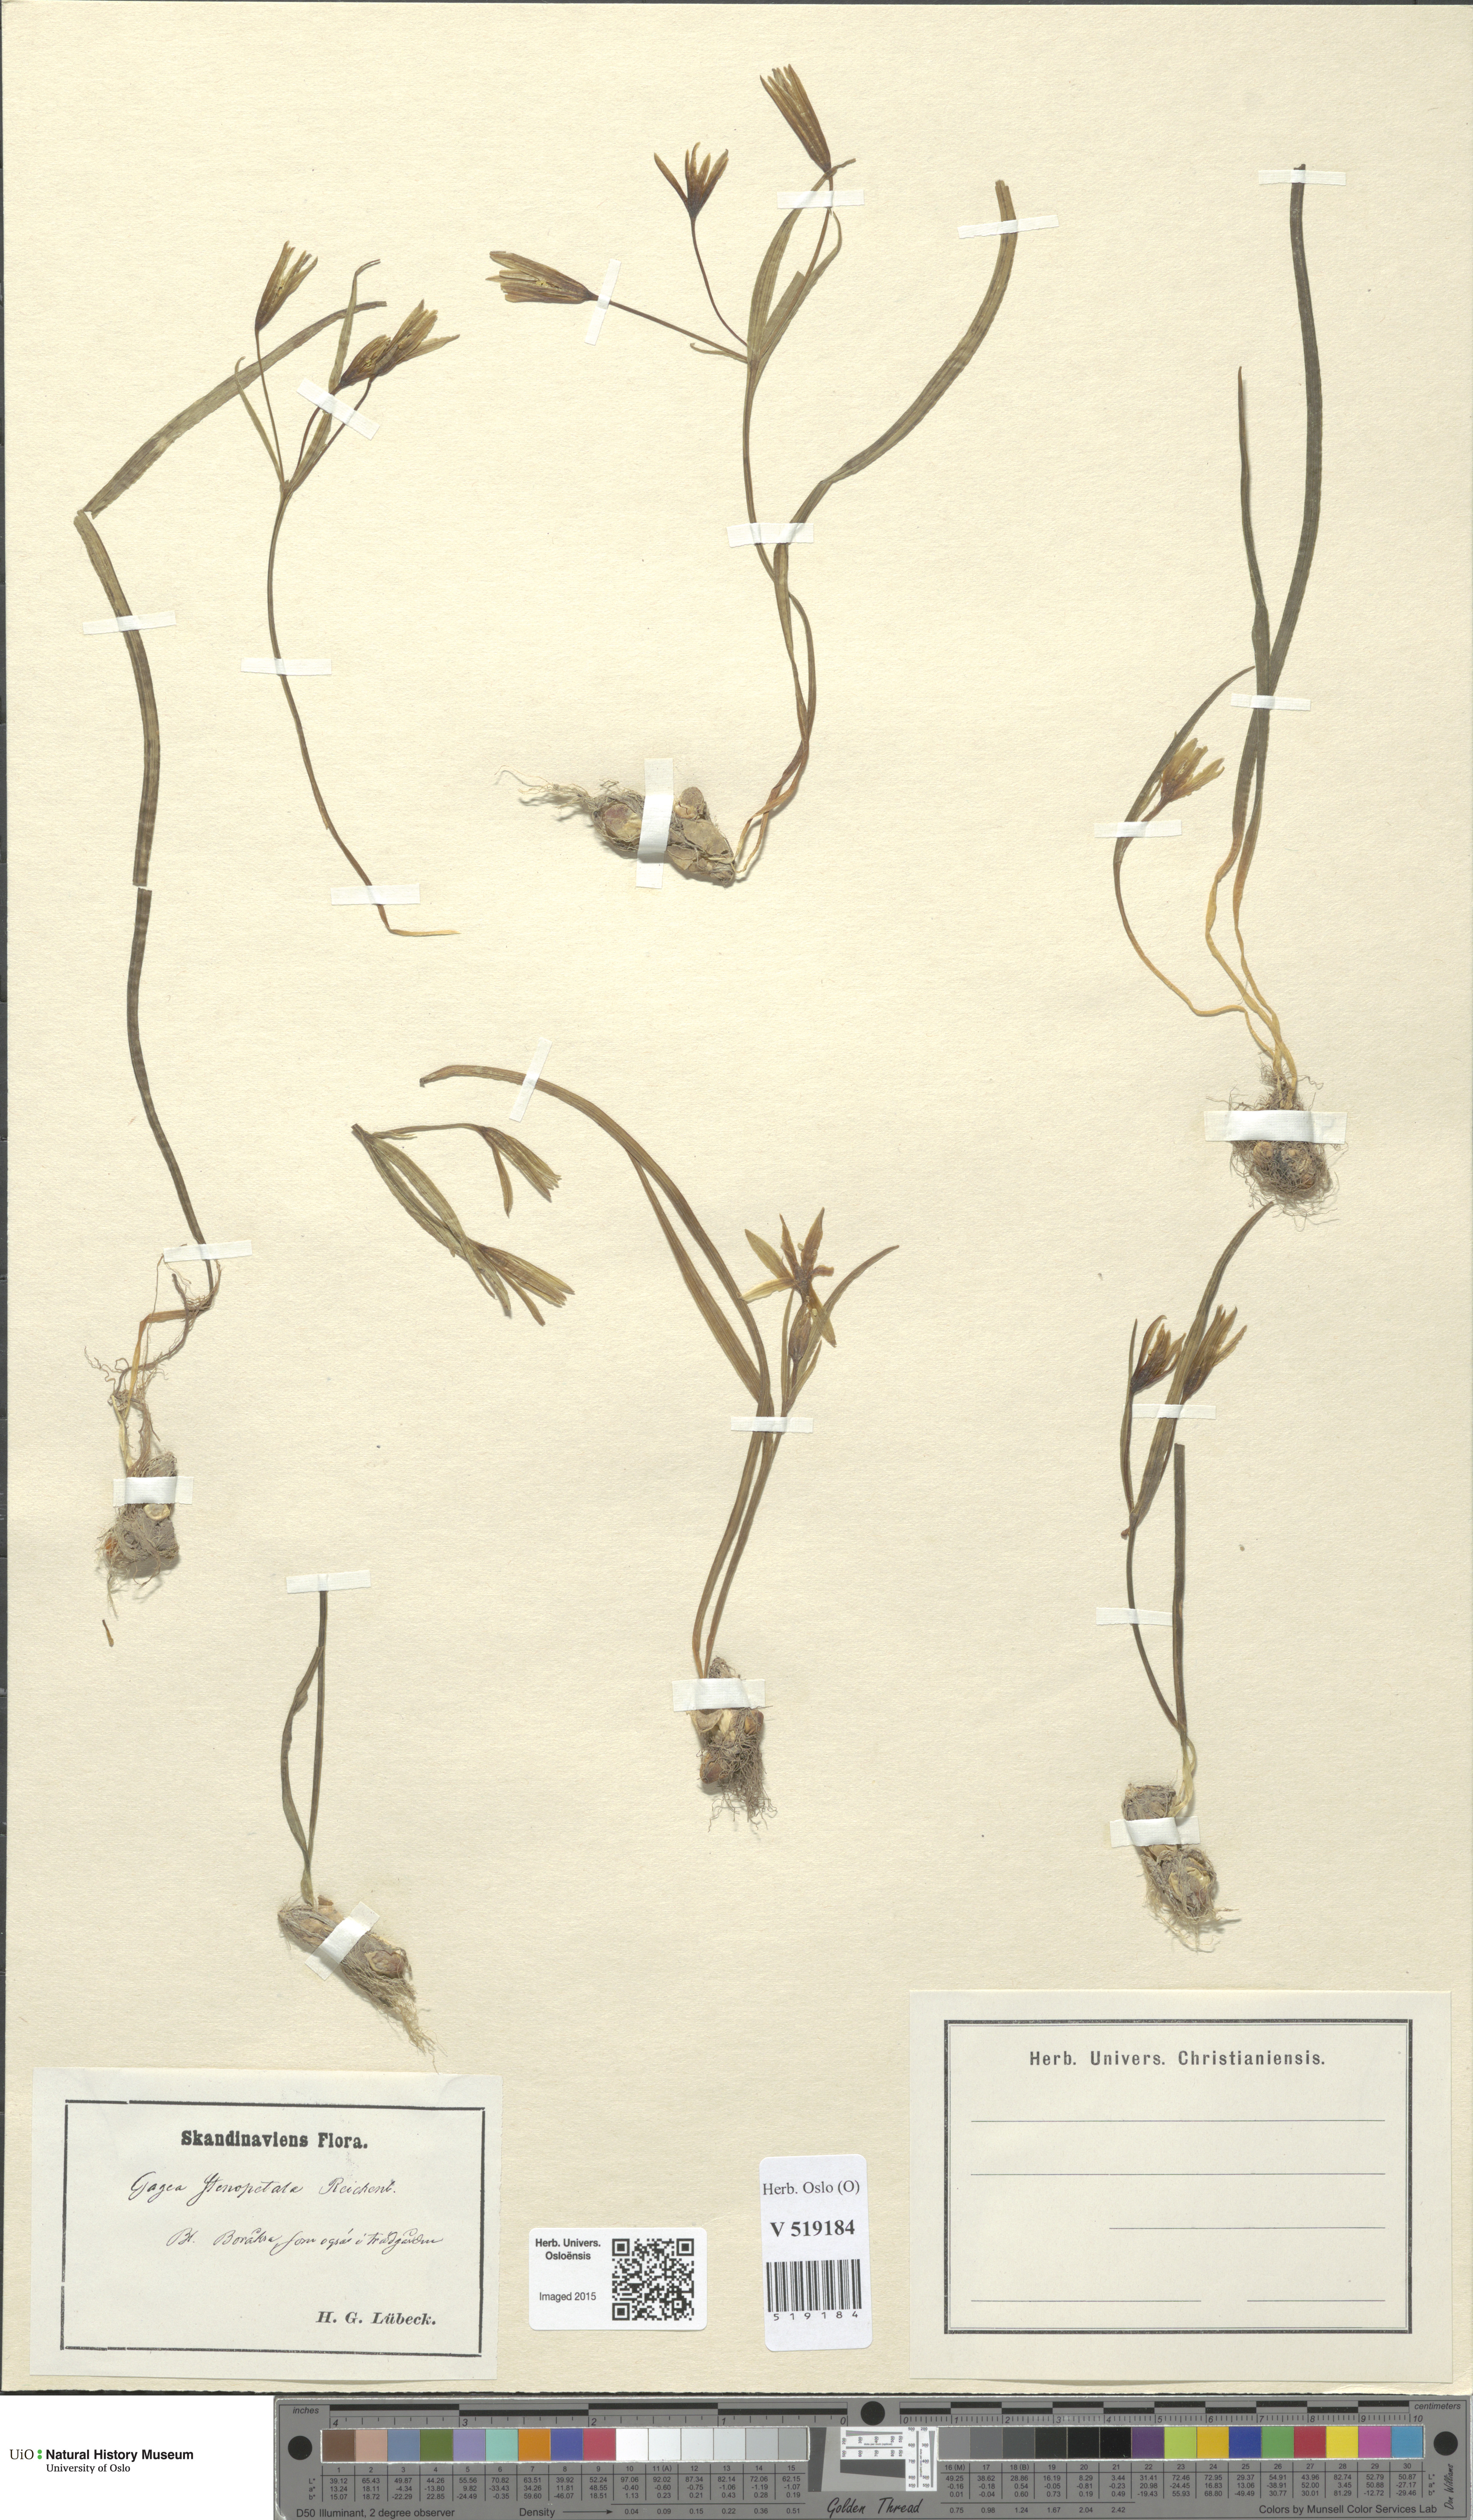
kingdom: Plantae
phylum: Tracheophyta
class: Liliopsida
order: Liliales
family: Liliaceae
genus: Gagea
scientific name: Gagea pratensis
